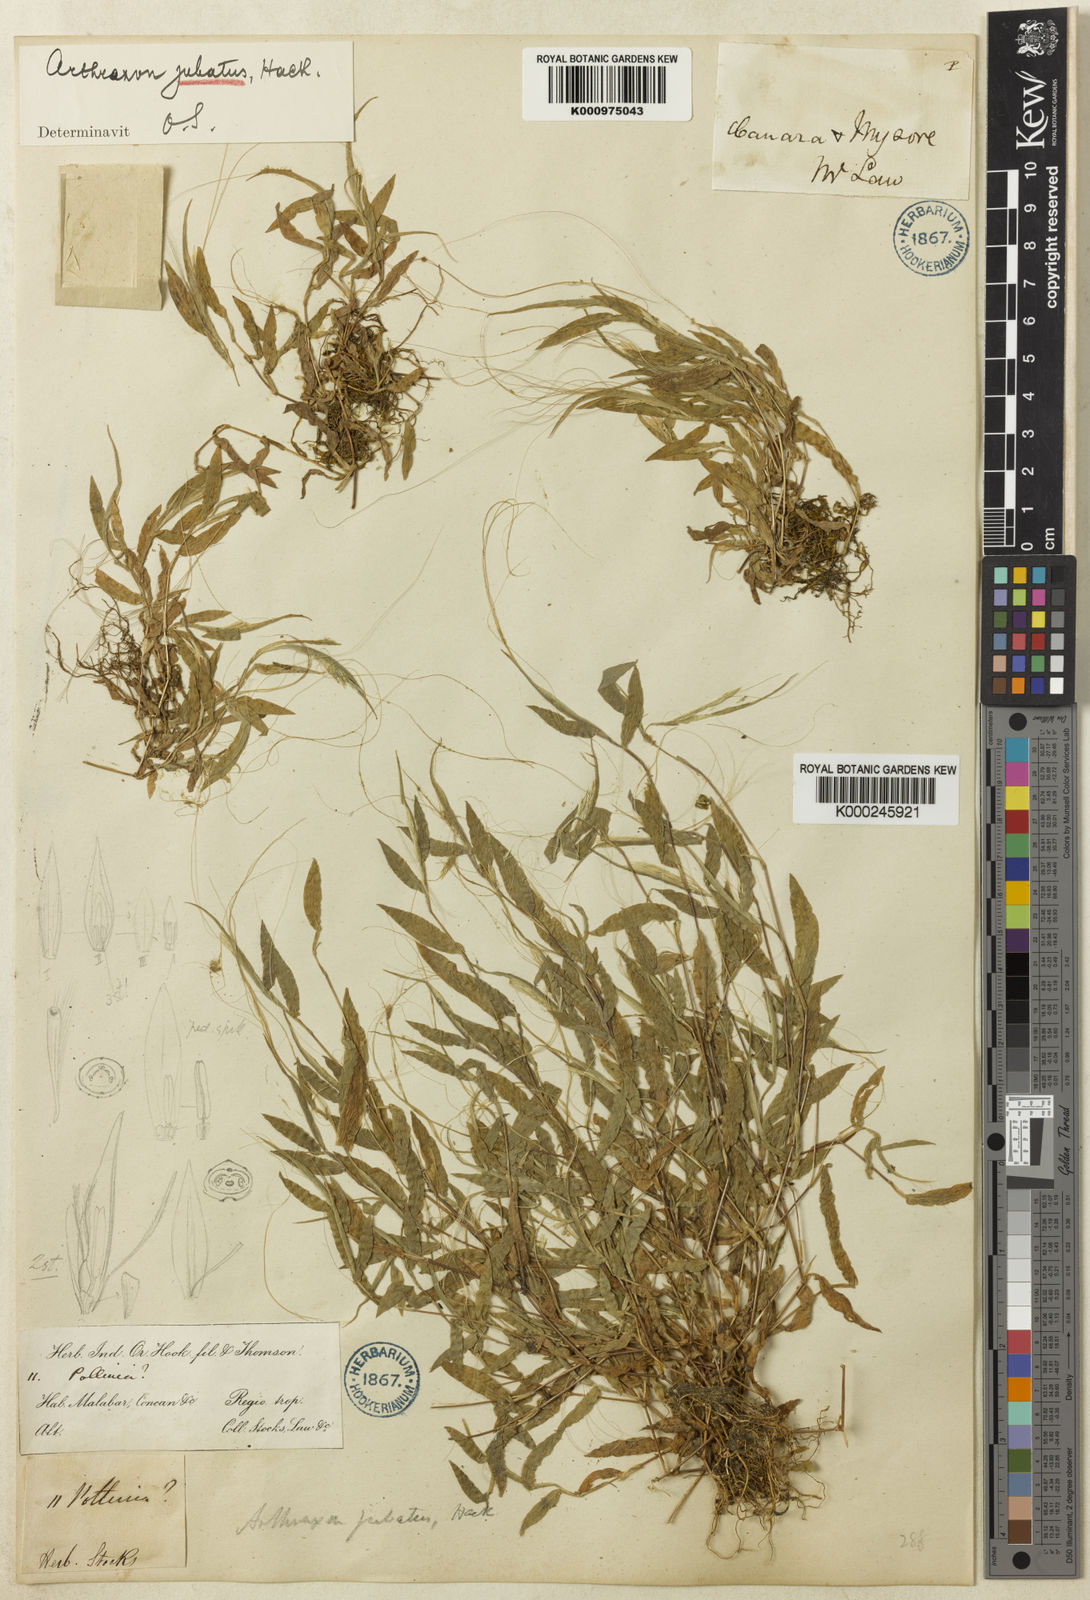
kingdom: Plantae
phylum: Tracheophyta
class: Liliopsida
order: Poales
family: Poaceae
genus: Arthraxon
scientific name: Arthraxon jubatus
